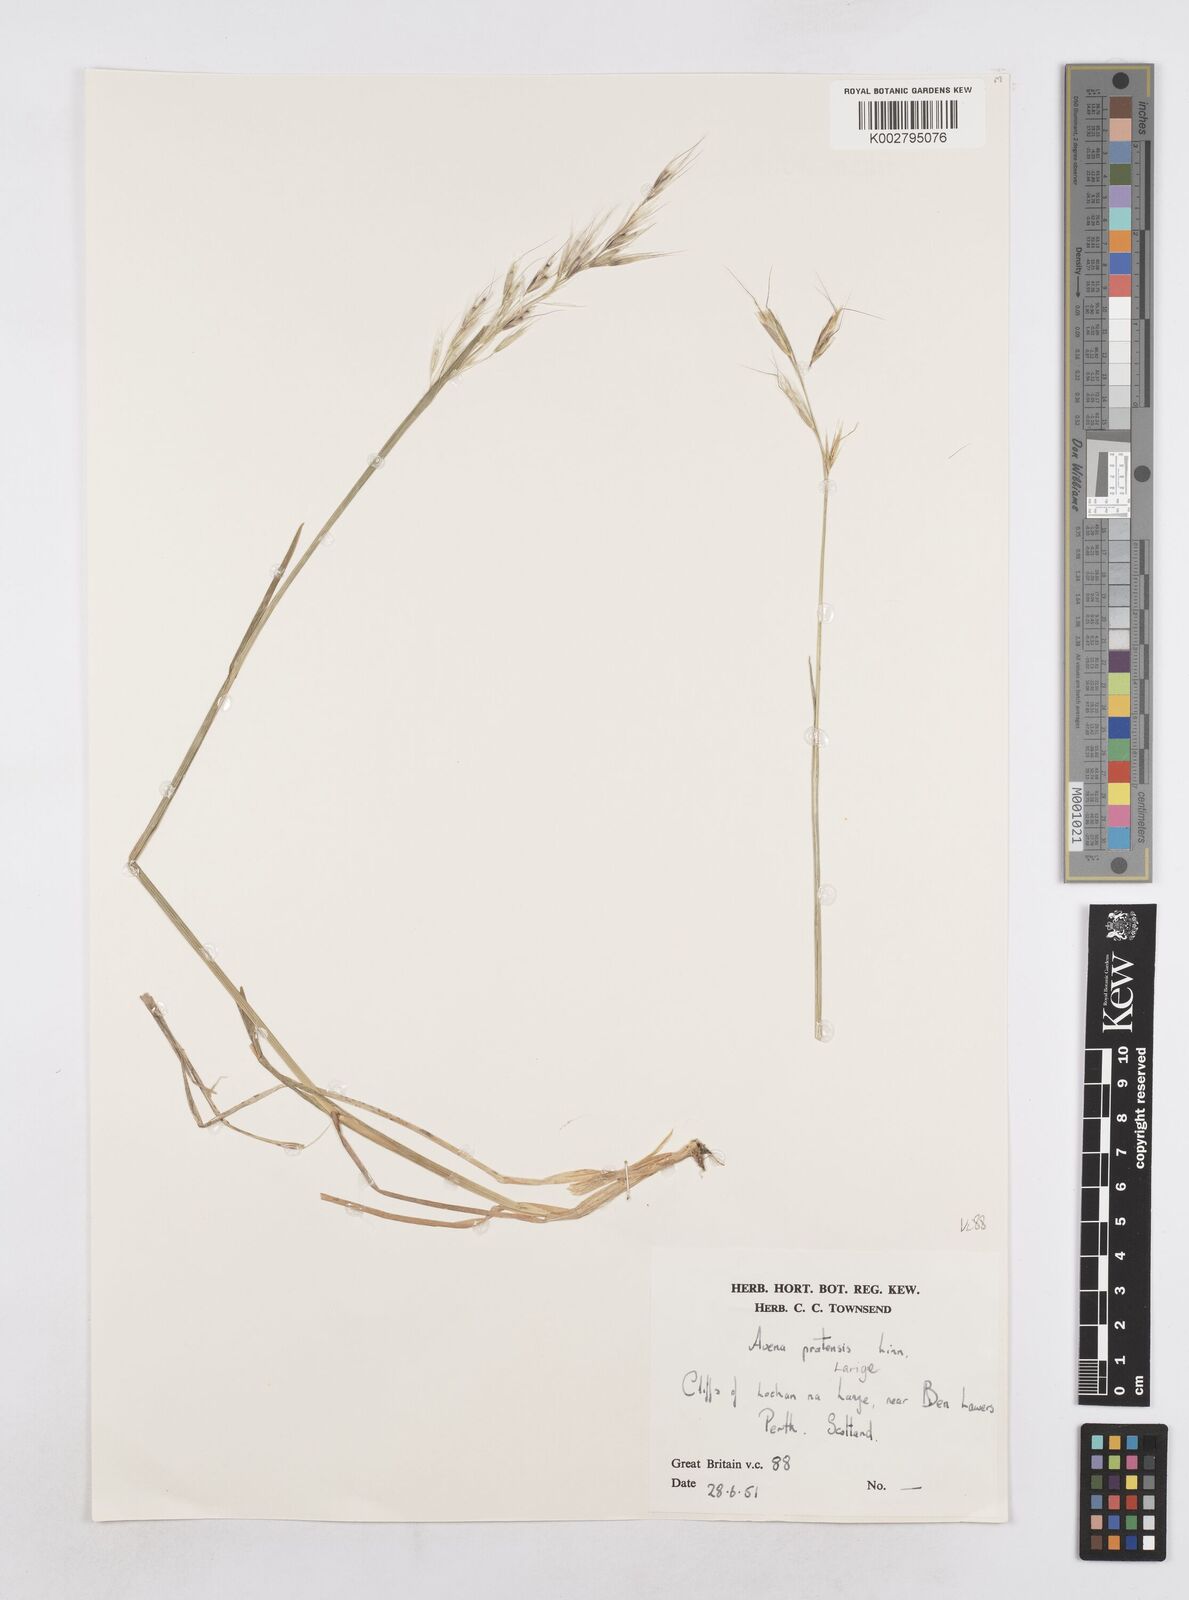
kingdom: Plantae
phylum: Tracheophyta
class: Liliopsida
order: Poales
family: Poaceae
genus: Helictotrichon
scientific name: Helictotrichon
